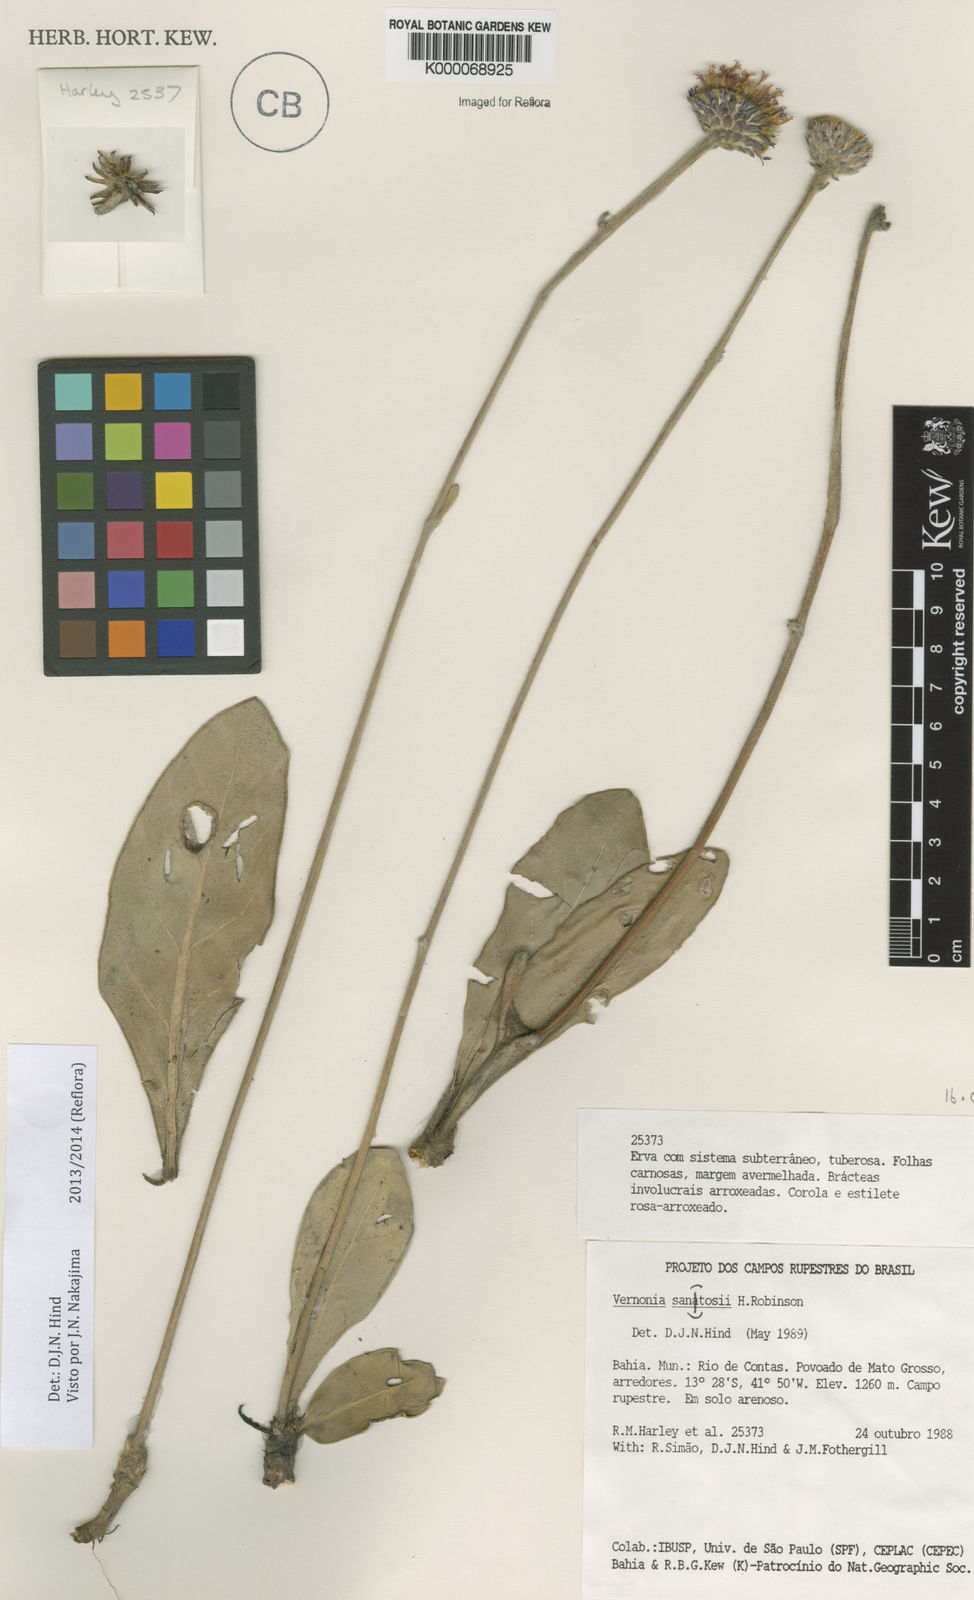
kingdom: Plantae
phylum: Tracheophyta
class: Magnoliopsida
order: Asterales
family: Asteraceae
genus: Lessingianthus
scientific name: Lessingianthus santosii
